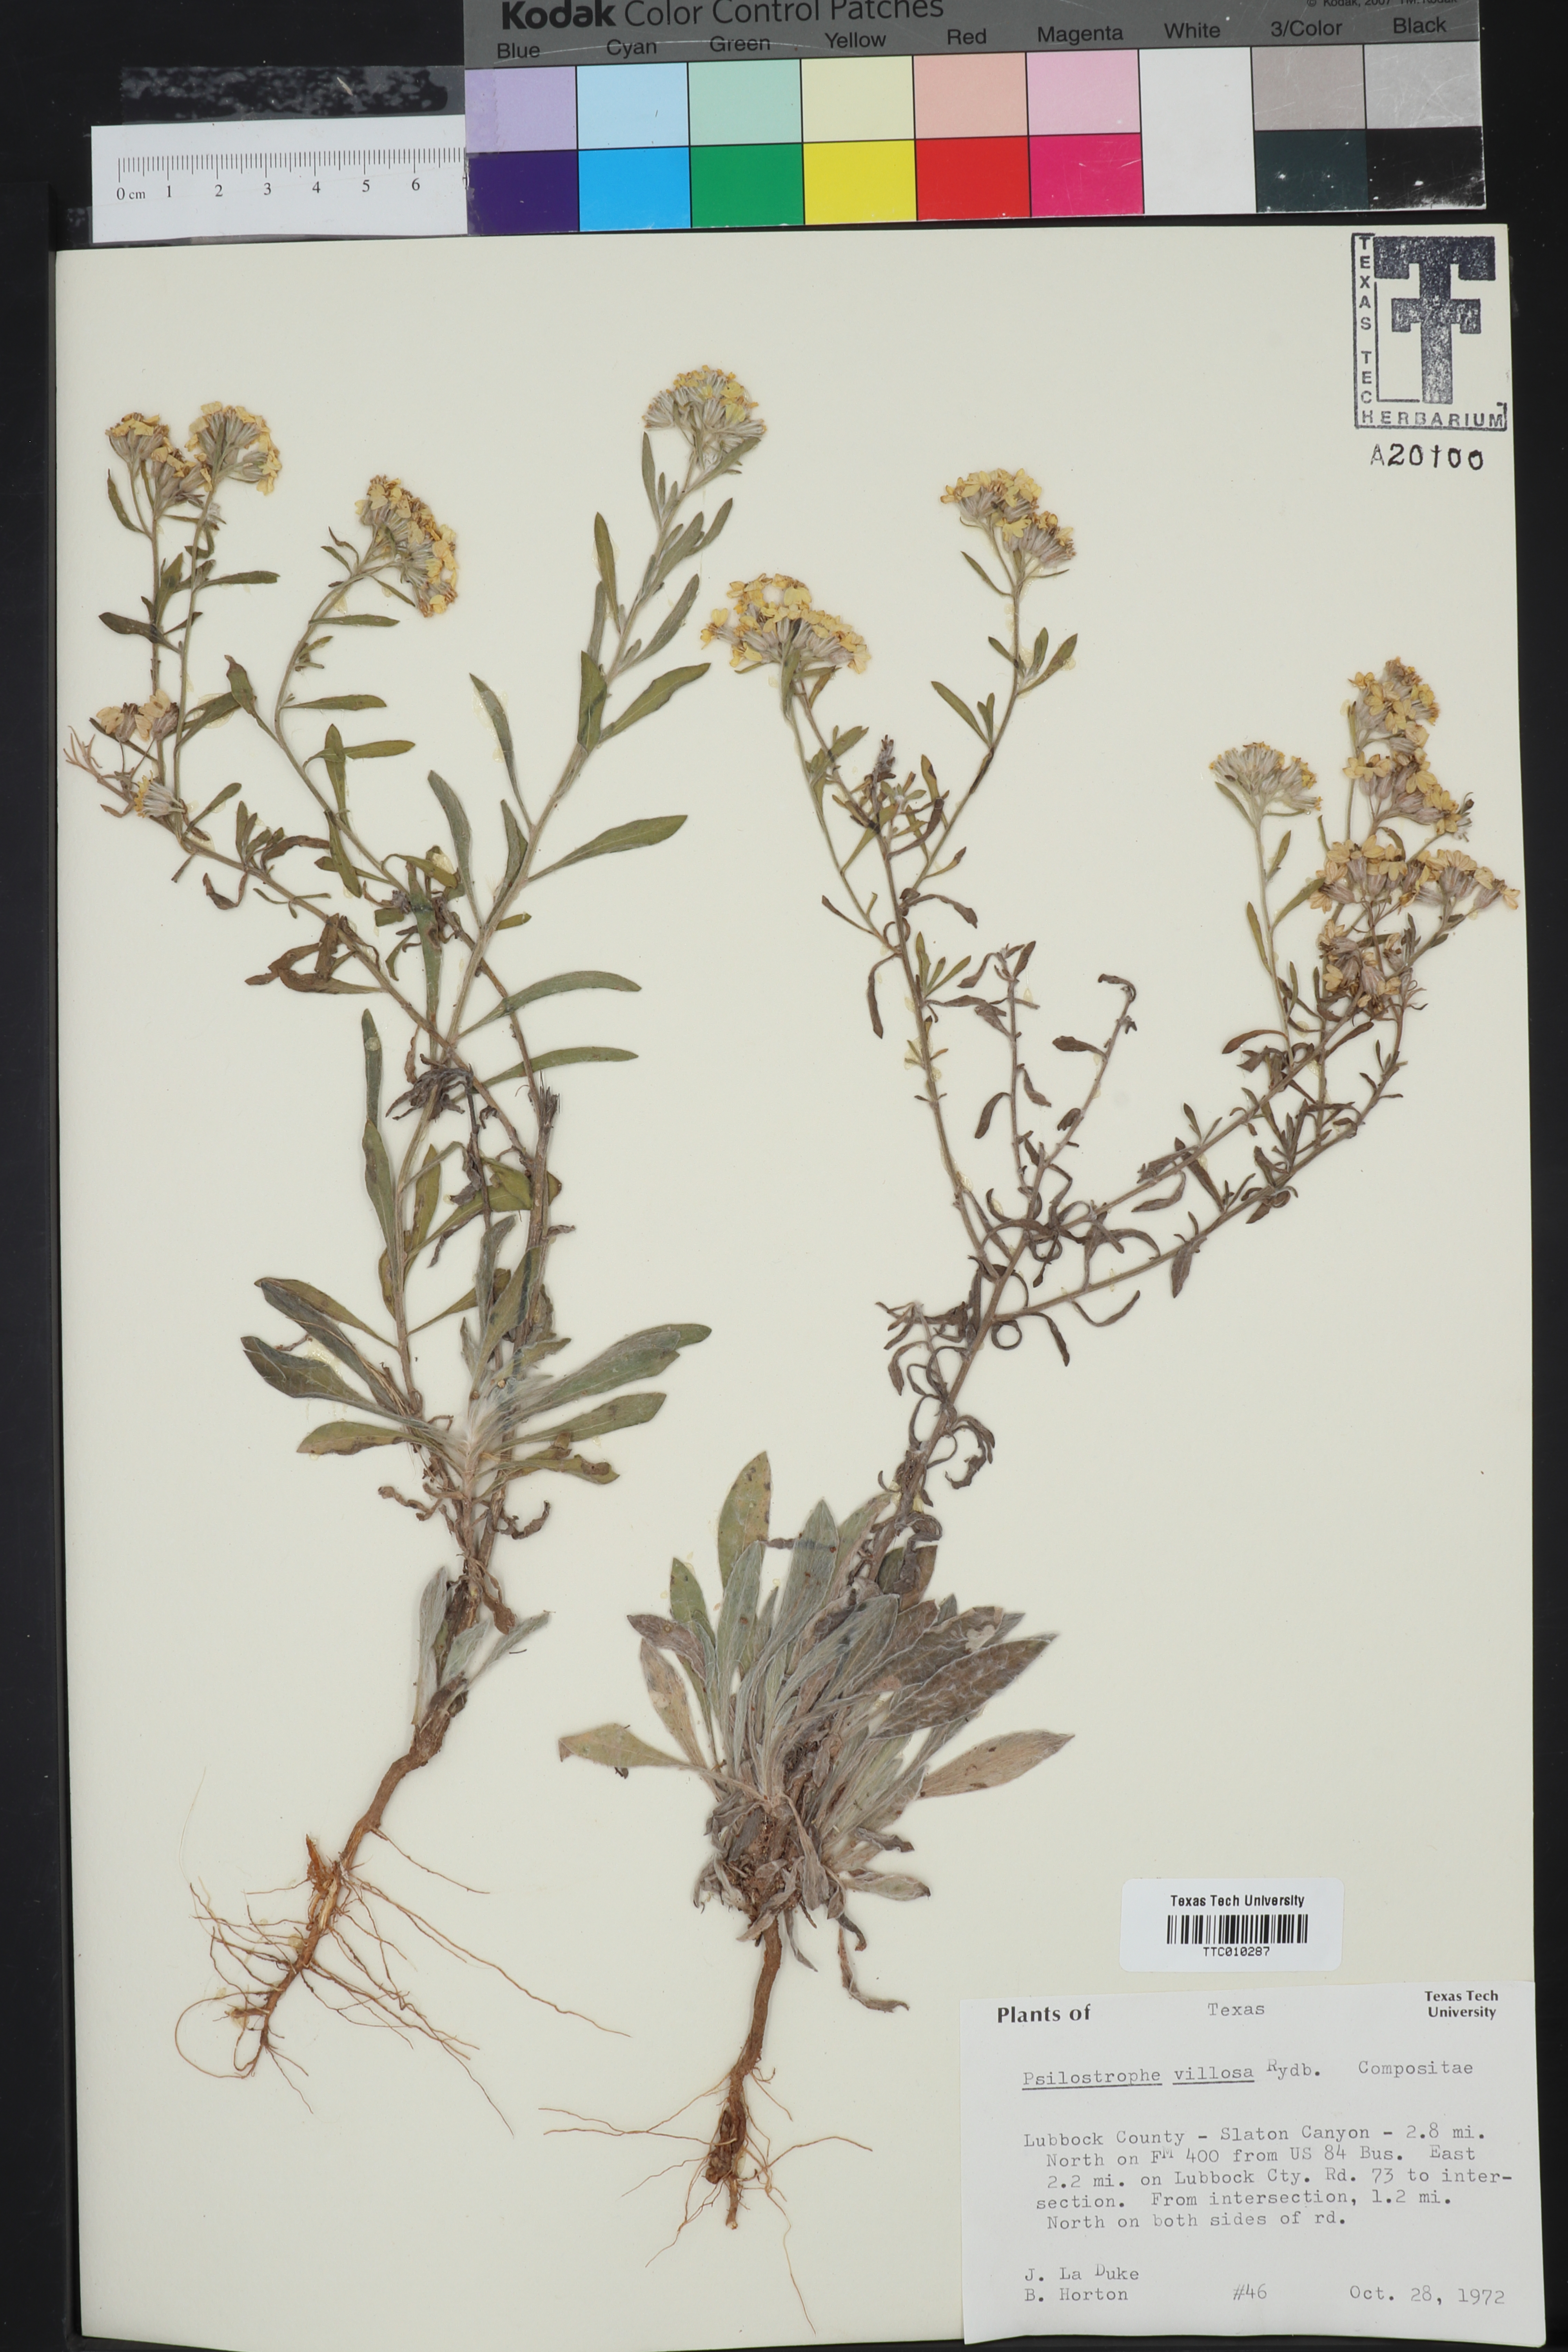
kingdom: Plantae
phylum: Tracheophyta
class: Magnoliopsida
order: Asterales
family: Asteraceae
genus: Psilostrophe
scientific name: Psilostrophe villosa
